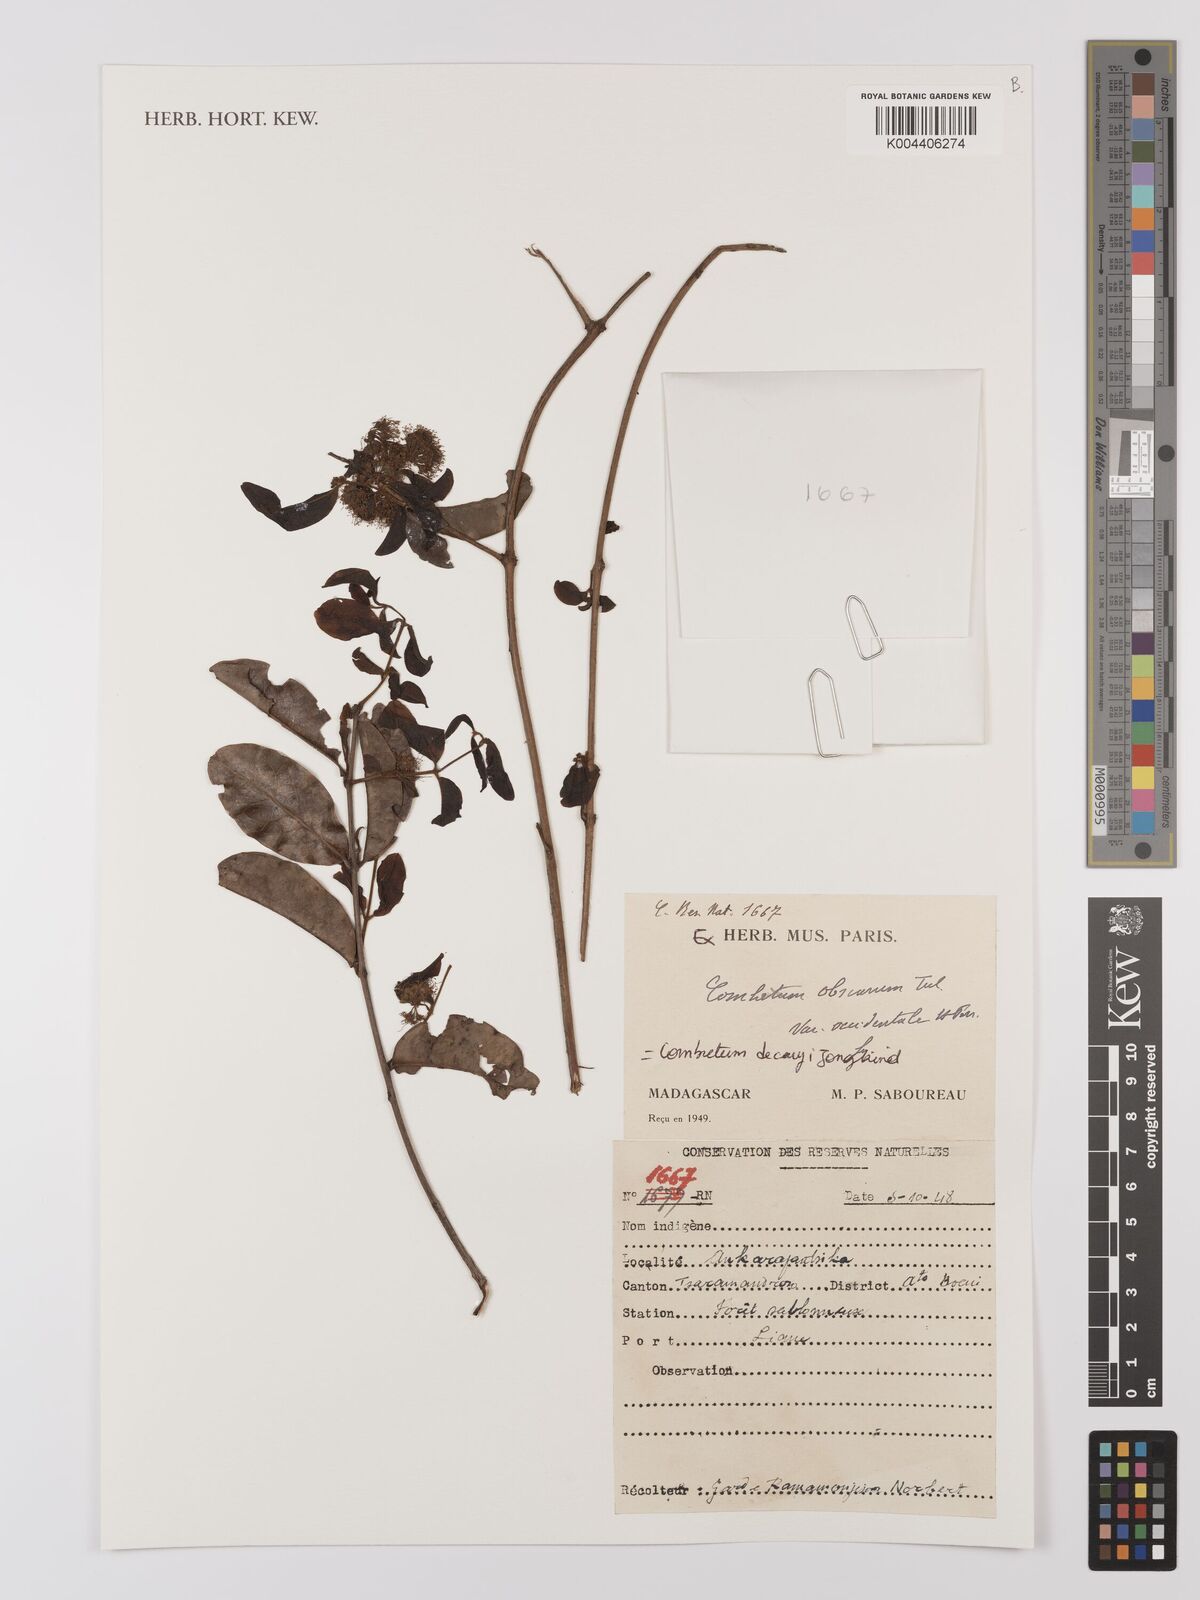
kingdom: Plantae
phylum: Tracheophyta
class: Magnoliopsida
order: Myrtales
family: Combretaceae
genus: Combretum
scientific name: Combretum obscurum
